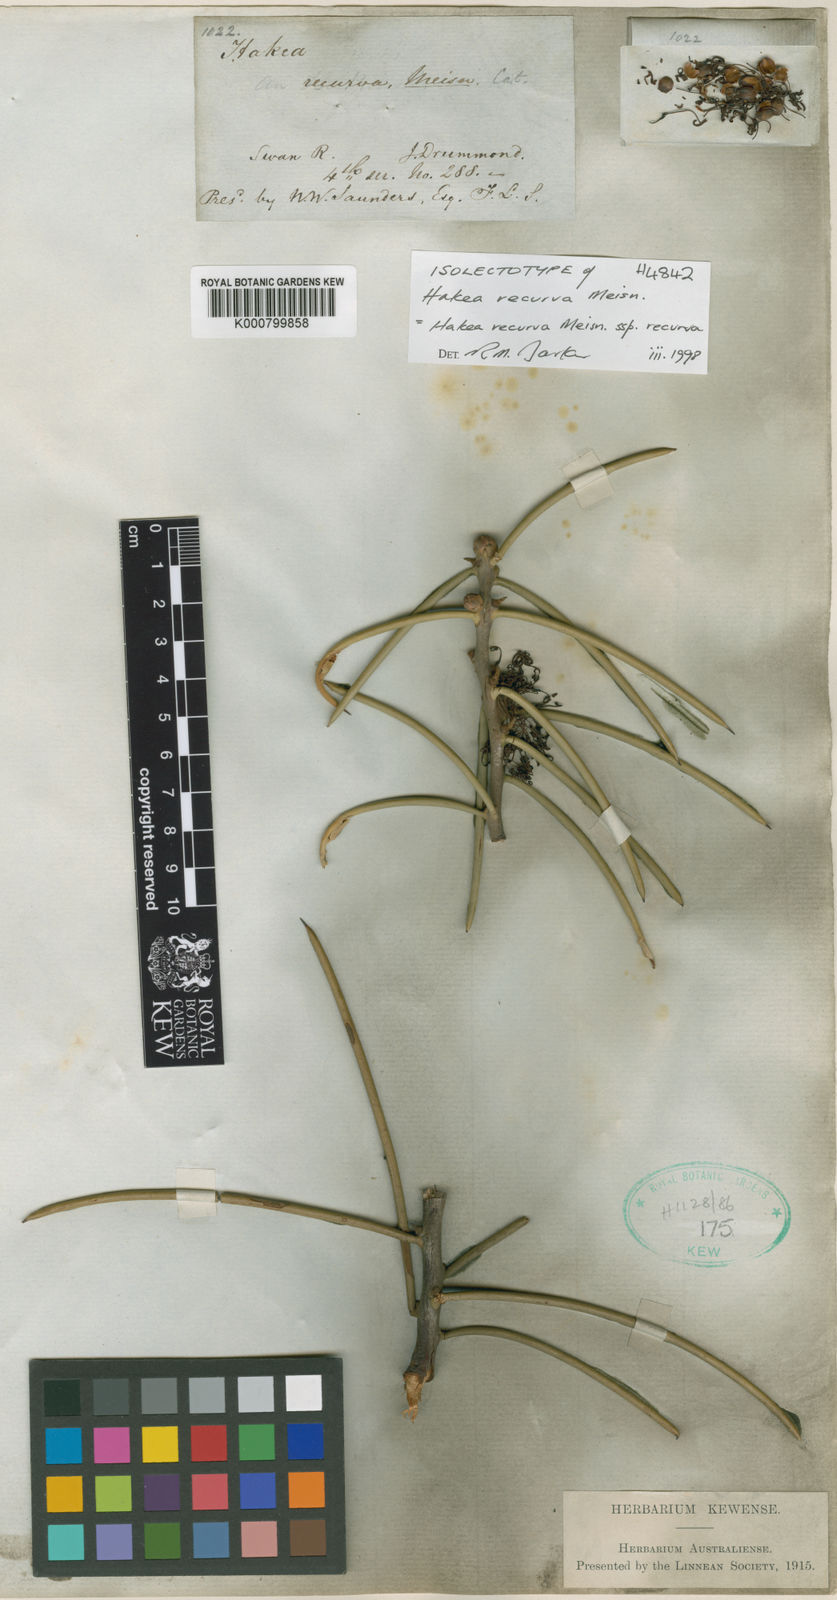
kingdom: Plantae
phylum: Tracheophyta
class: Magnoliopsida
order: Proteales
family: Proteaceae
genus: Hakea
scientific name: Hakea recurva
